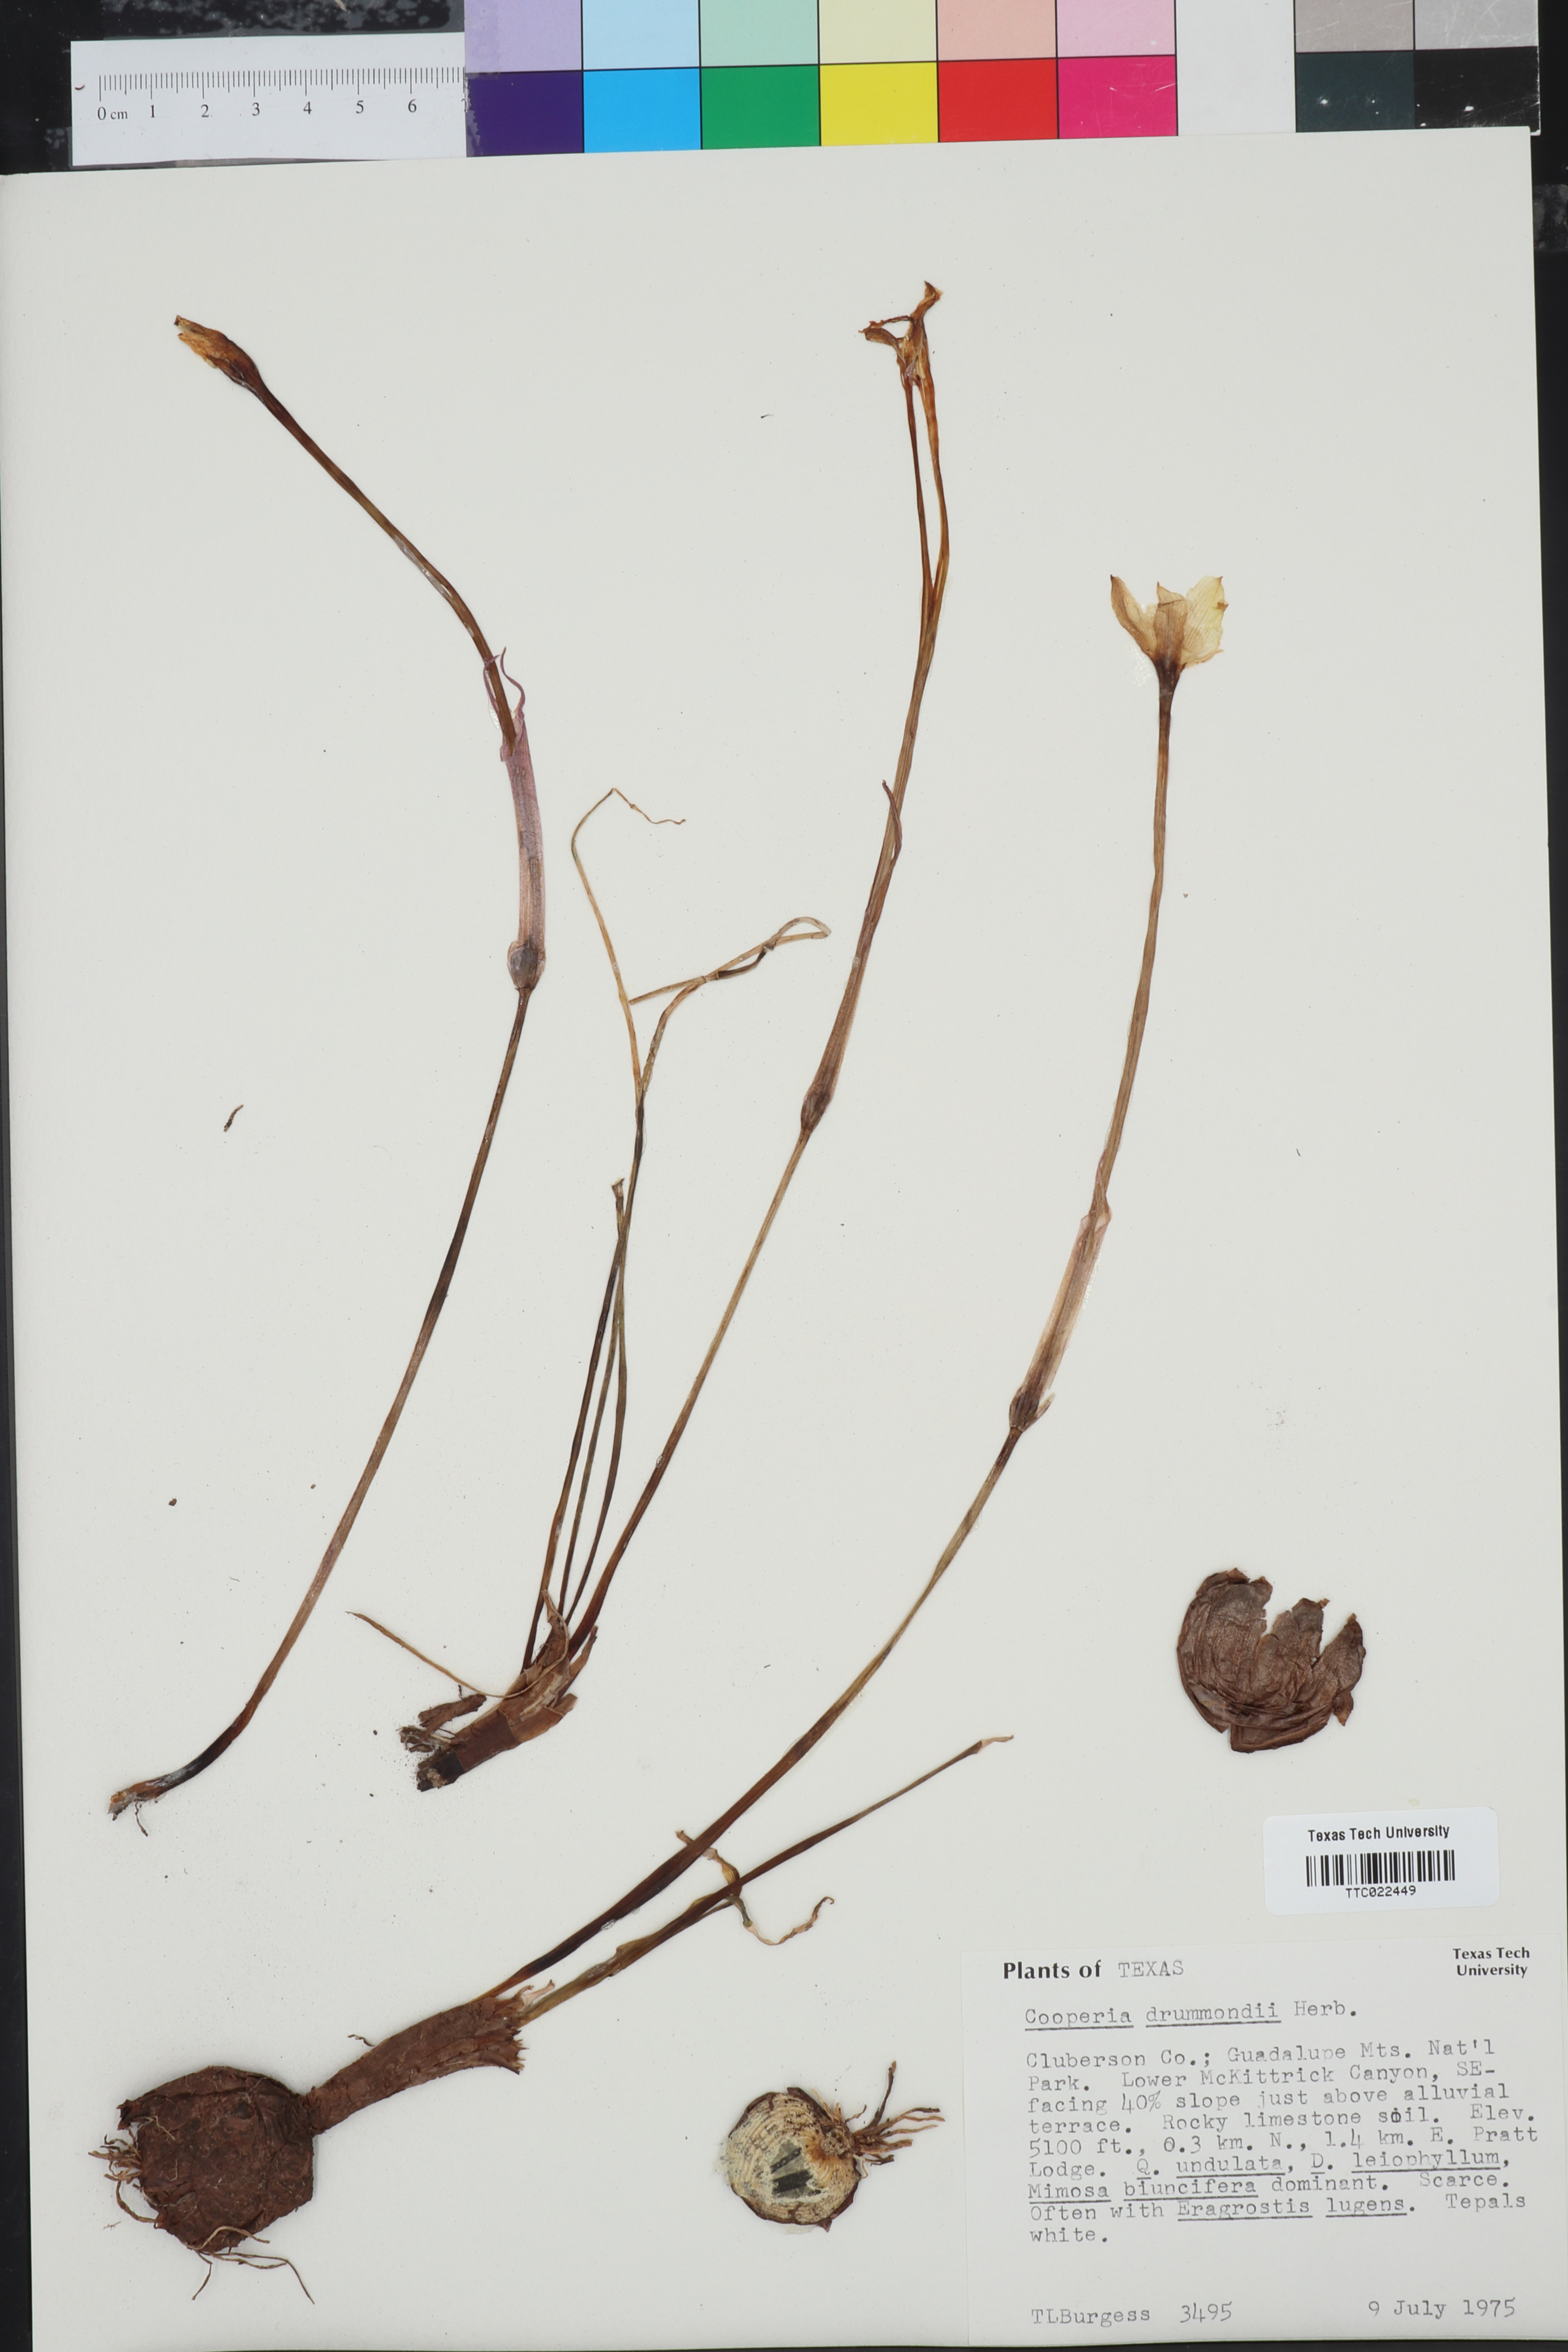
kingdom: Plantae
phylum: Tracheophyta
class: Liliopsida
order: Asparagales
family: Amaryllidaceae
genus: Zephyranthes
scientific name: Zephyranthes chlorosolen
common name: Evening rain-lily
